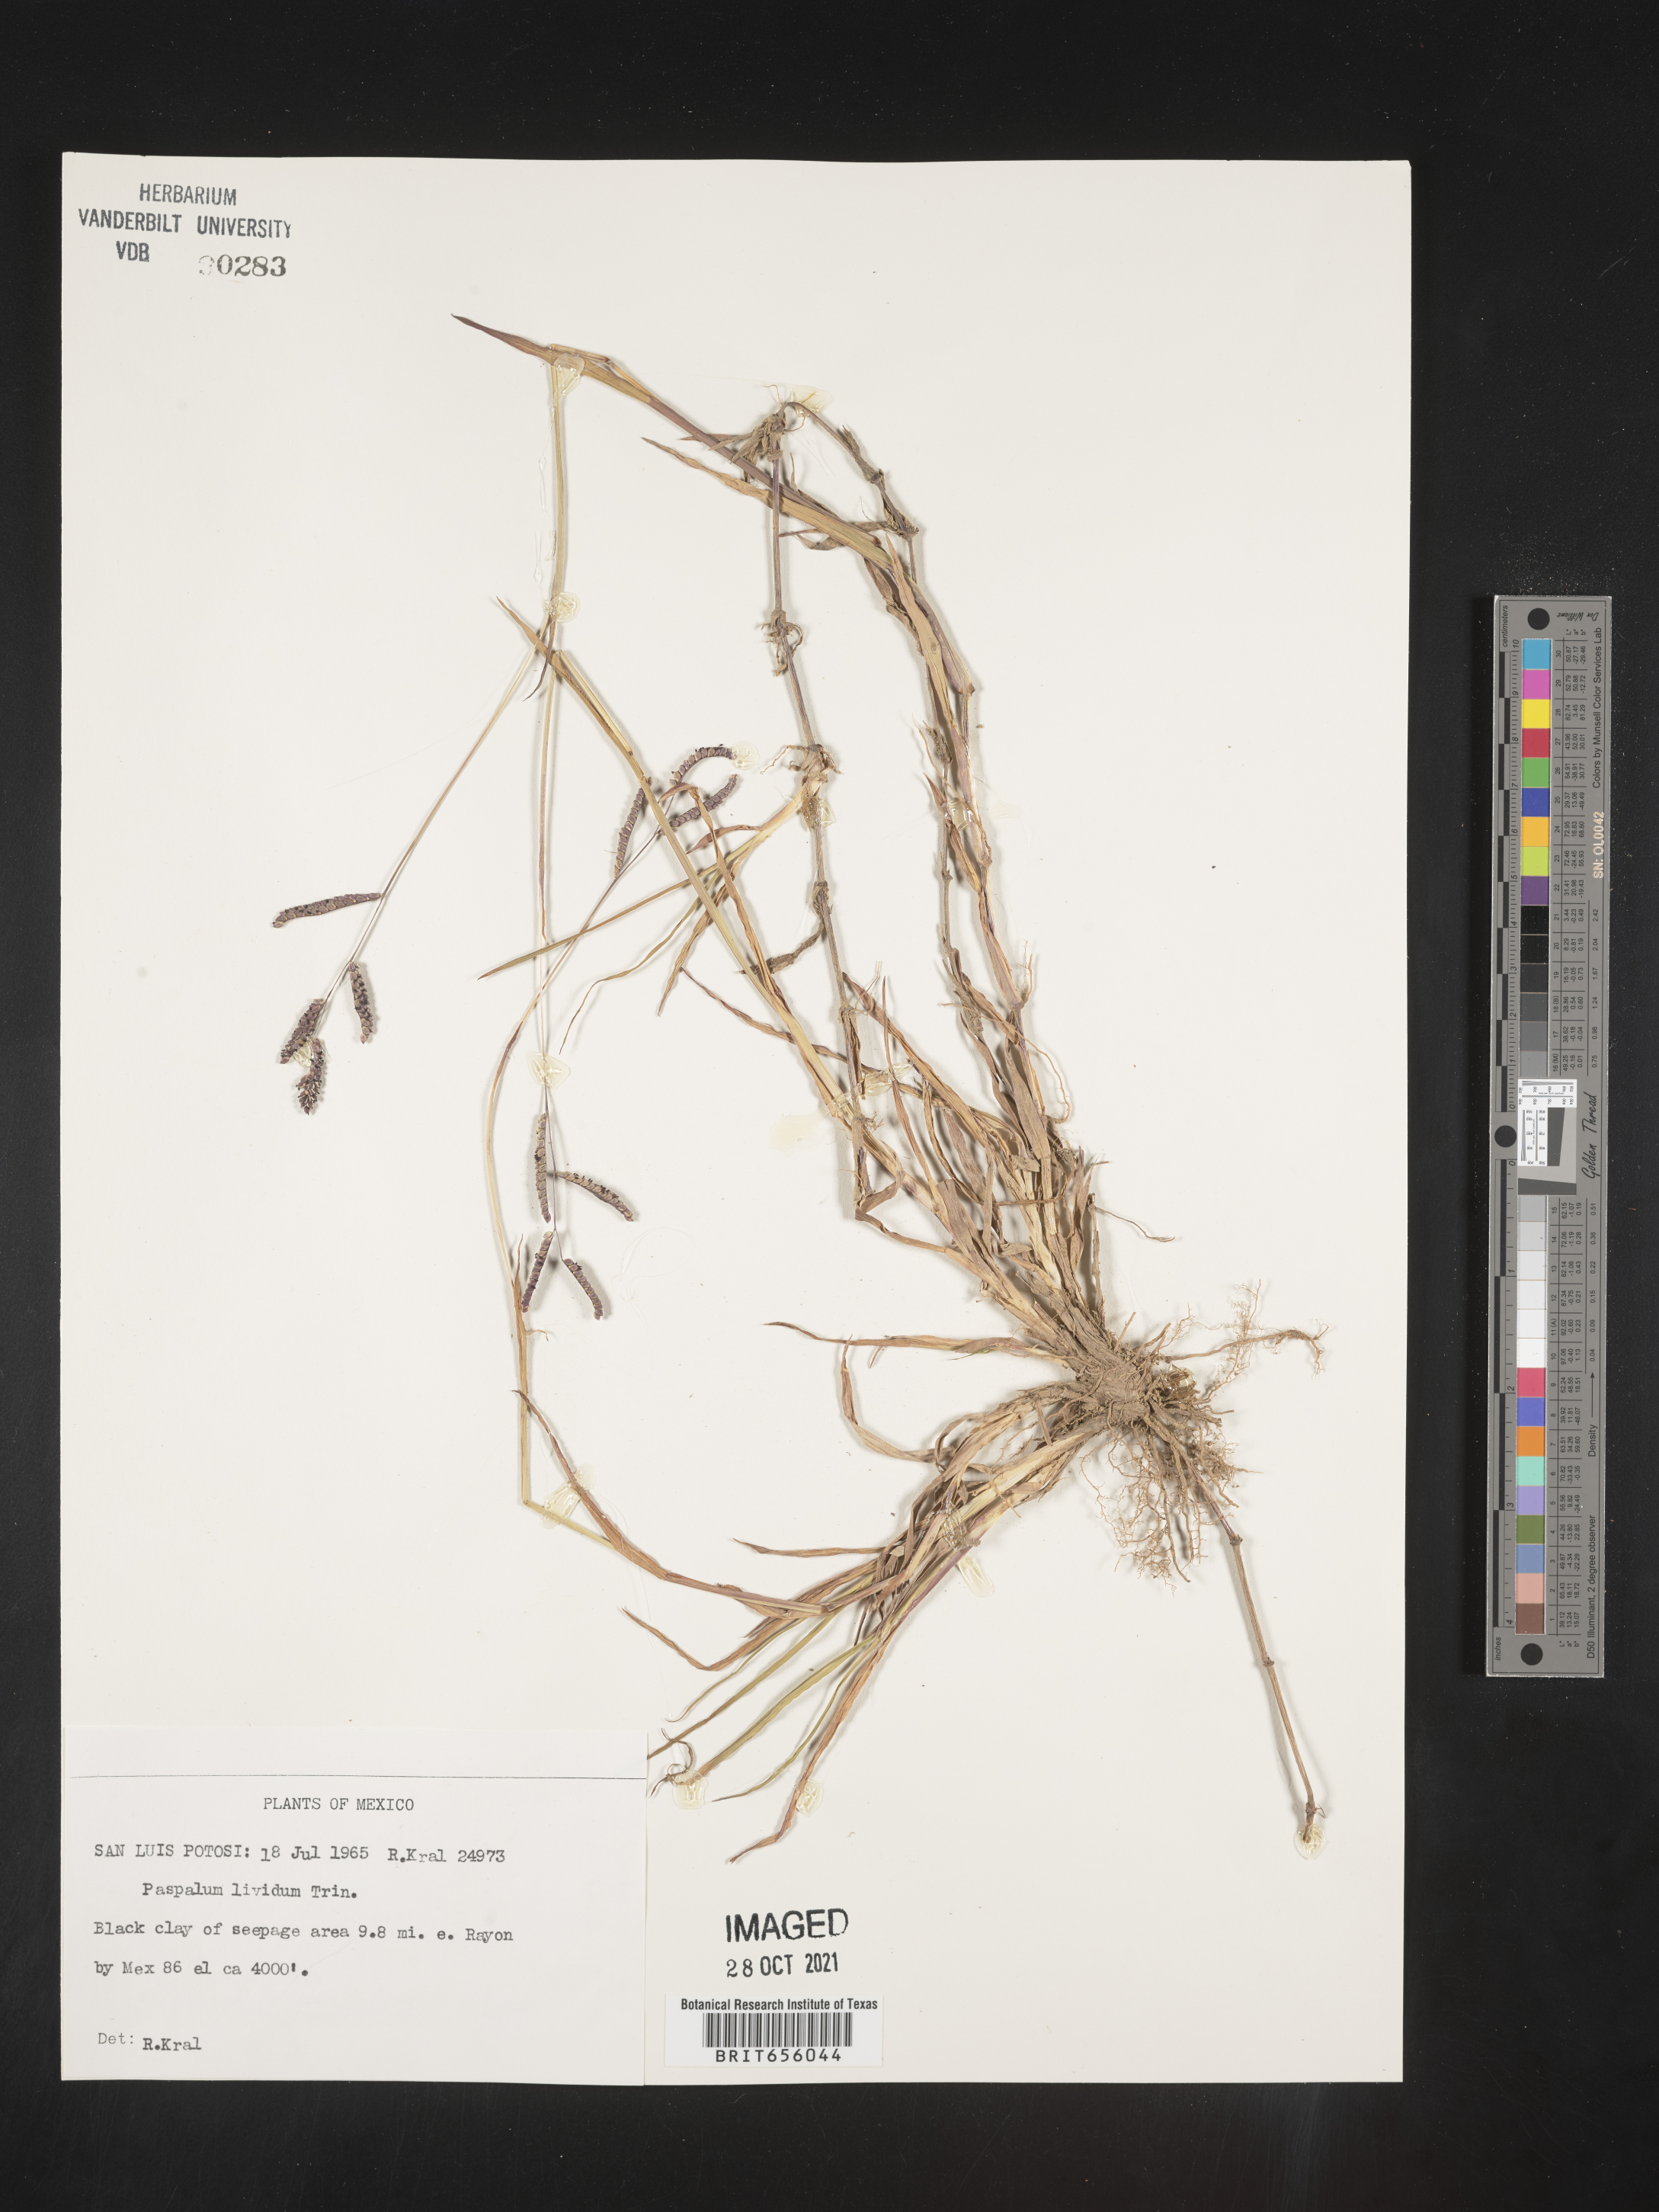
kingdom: Plantae
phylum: Tracheophyta
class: Liliopsida
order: Poales
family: Poaceae
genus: Paspalum
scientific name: Paspalum
